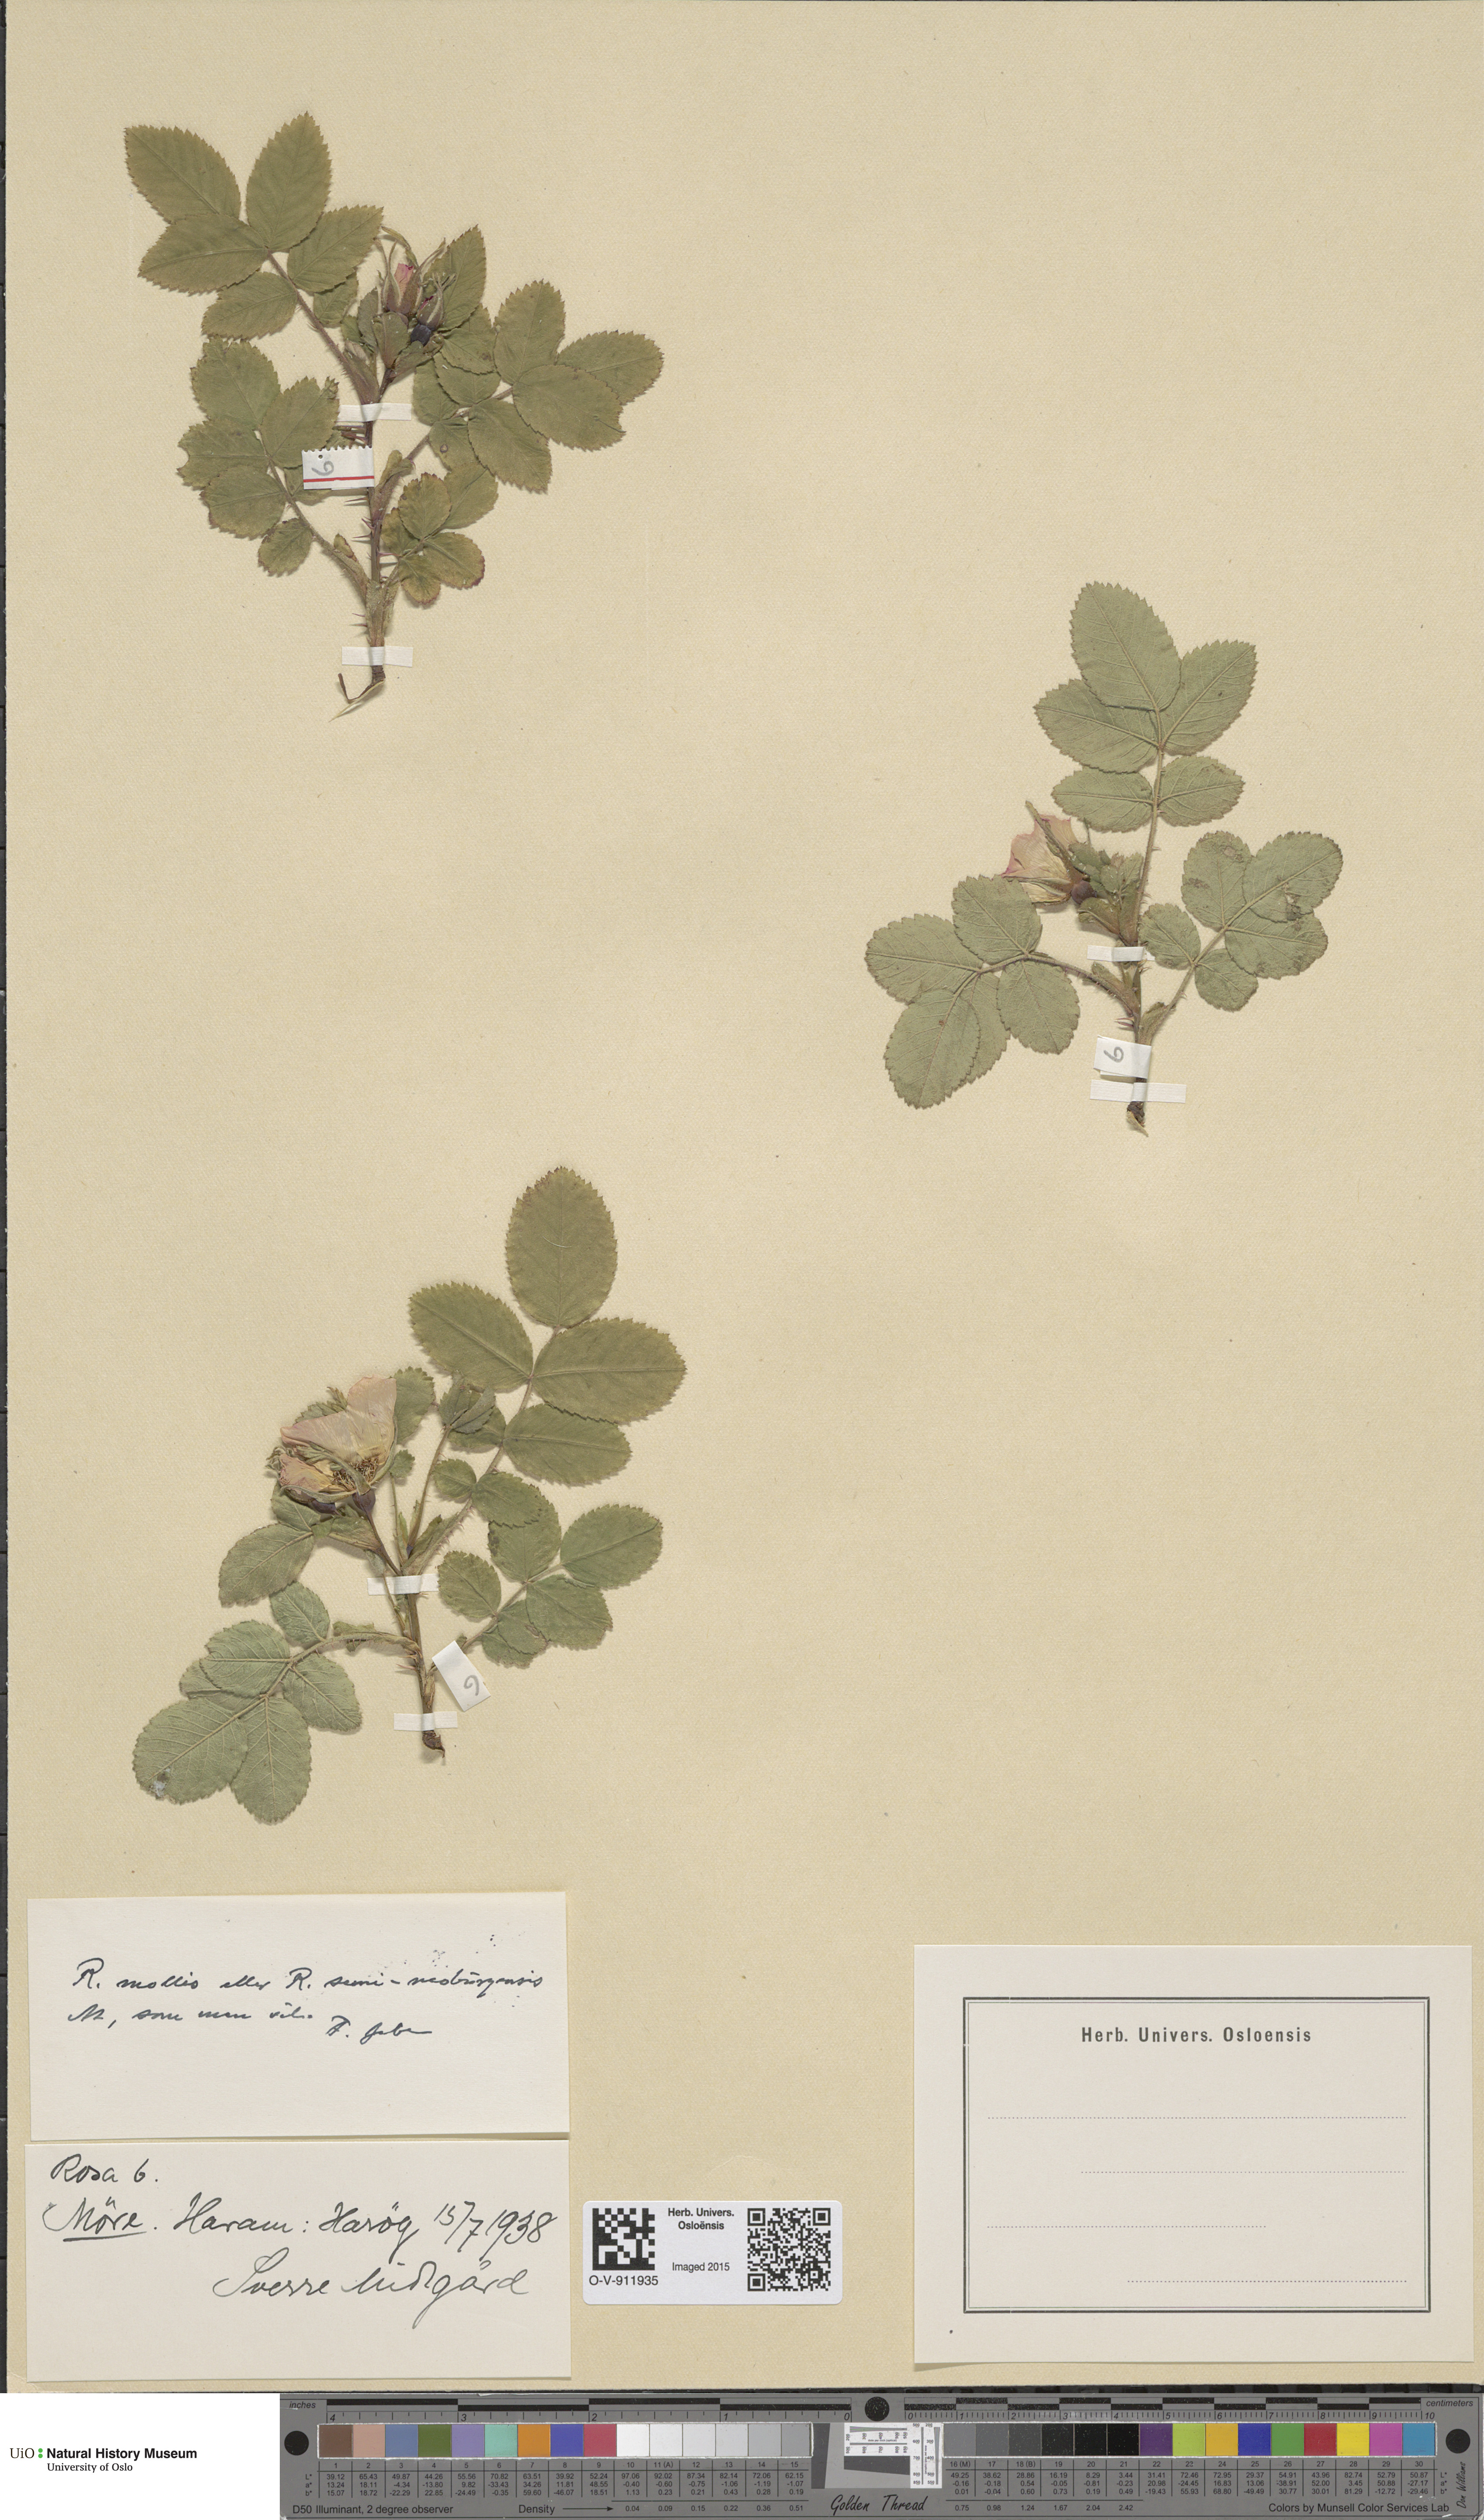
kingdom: Plantae
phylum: Tracheophyta
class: Magnoliopsida
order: Rosales
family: Rosaceae
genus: Rosa
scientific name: Rosa mollis
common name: Rose
